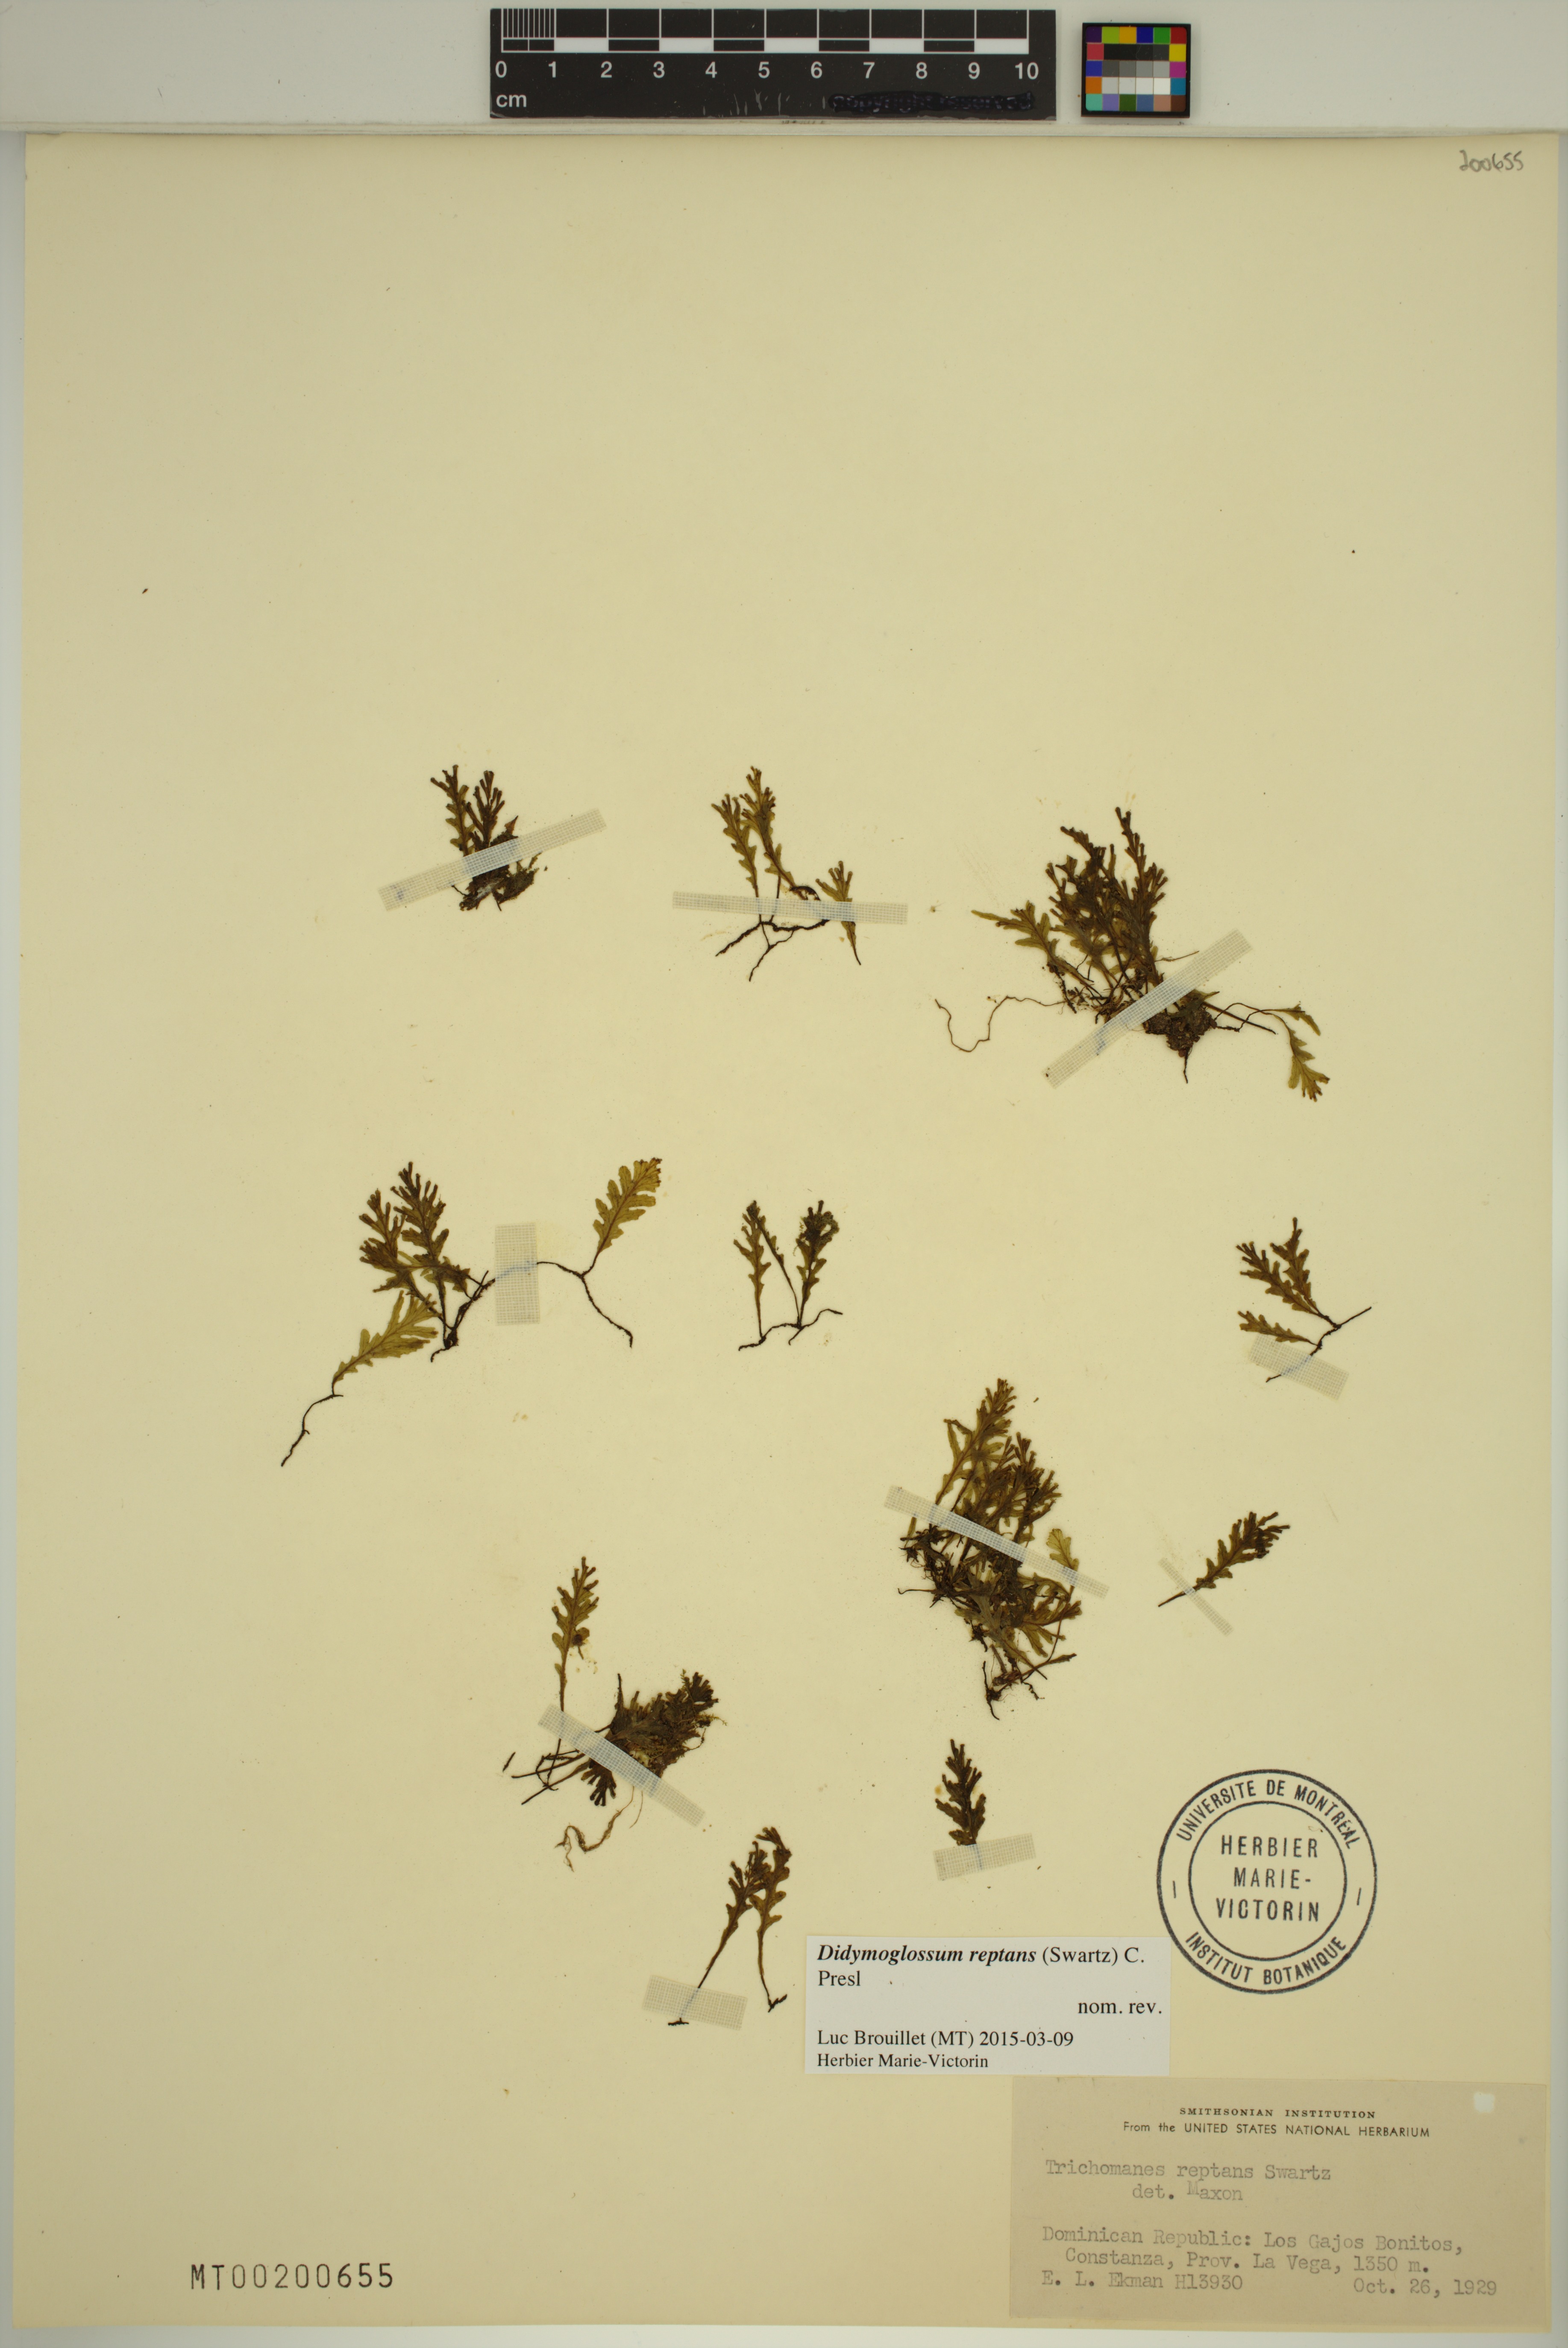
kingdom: Plantae
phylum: Tracheophyta
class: Polypodiopsida
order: Hymenophyllales
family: Hymenophyllaceae
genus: Didymoglossum
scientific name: Didymoglossum reptans
